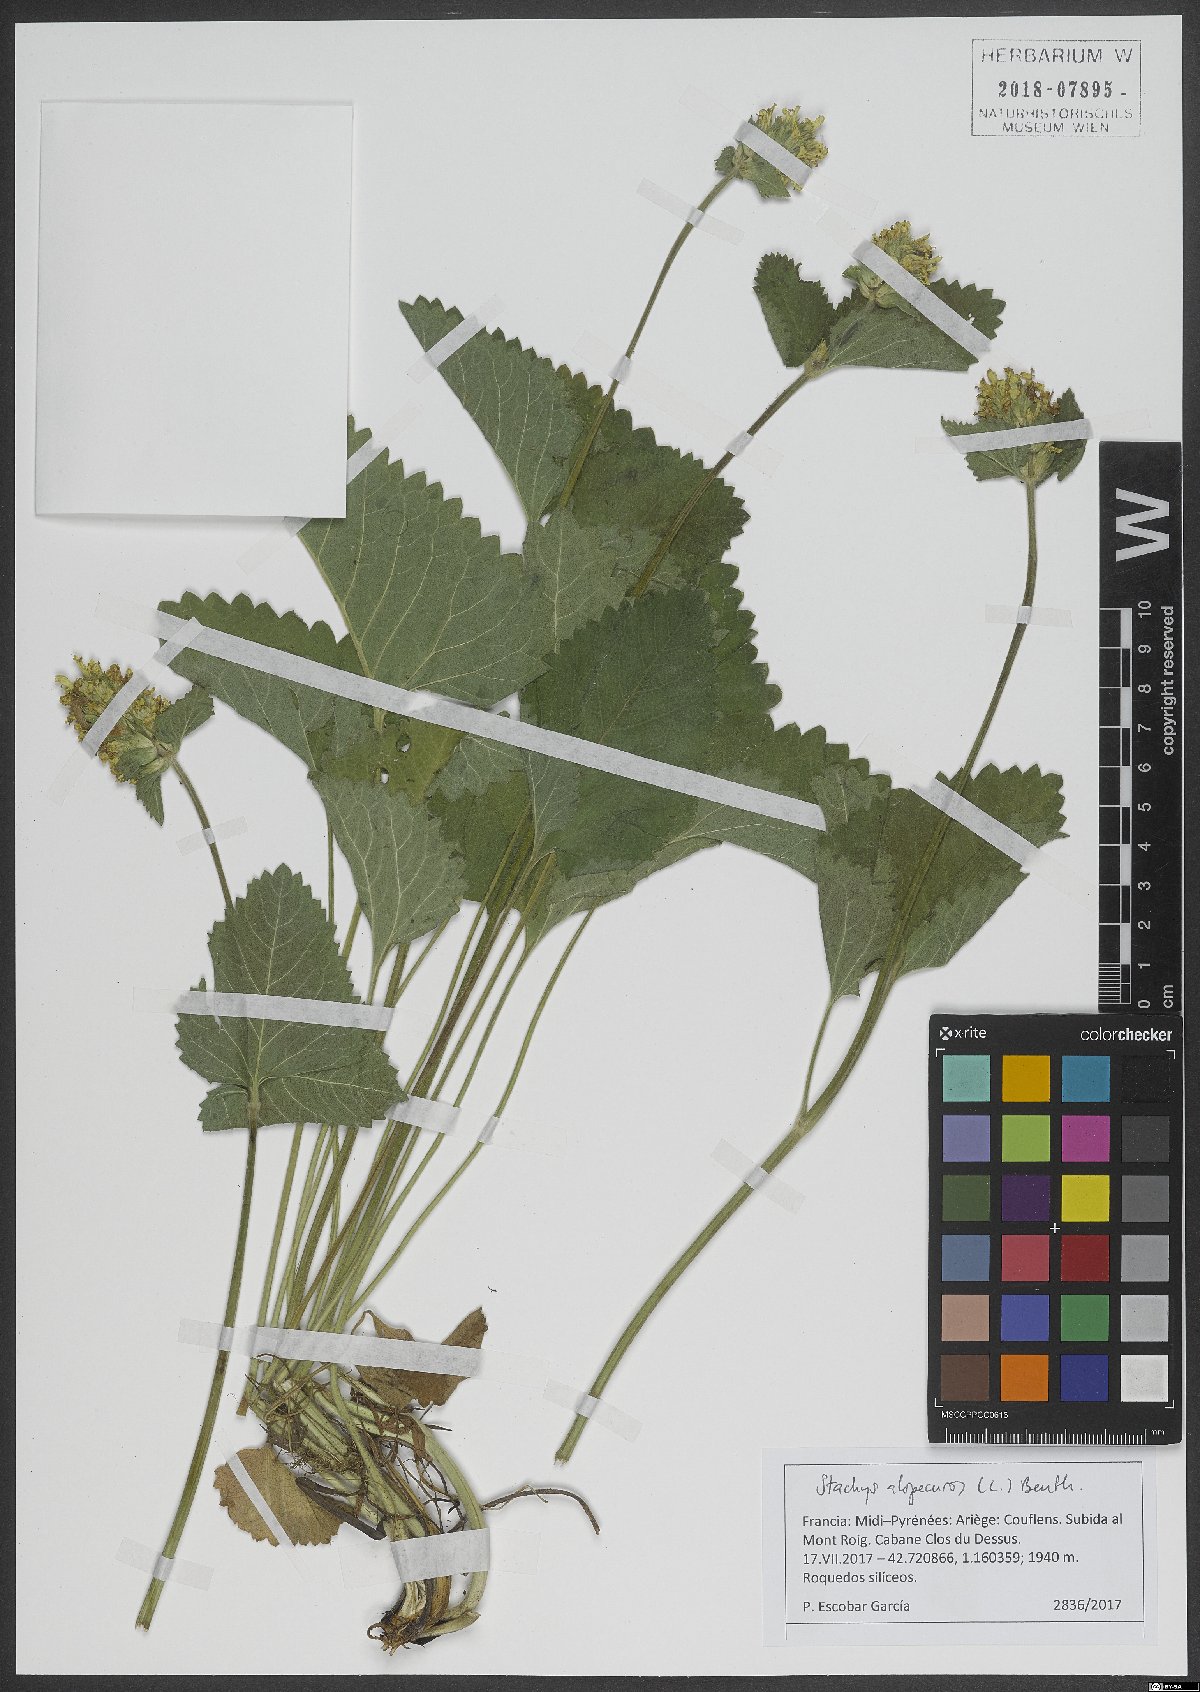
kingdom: Plantae
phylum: Tracheophyta
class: Magnoliopsida
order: Lamiales
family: Lamiaceae
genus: Betonica
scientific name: Betonica alopecuros
